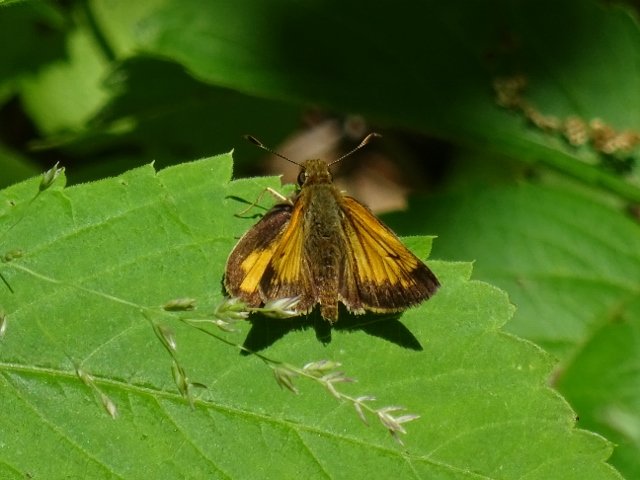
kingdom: Animalia
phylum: Arthropoda
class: Insecta
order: Lepidoptera
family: Hesperiidae
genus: Lon
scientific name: Lon hobomok
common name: Hobomok Skipper
